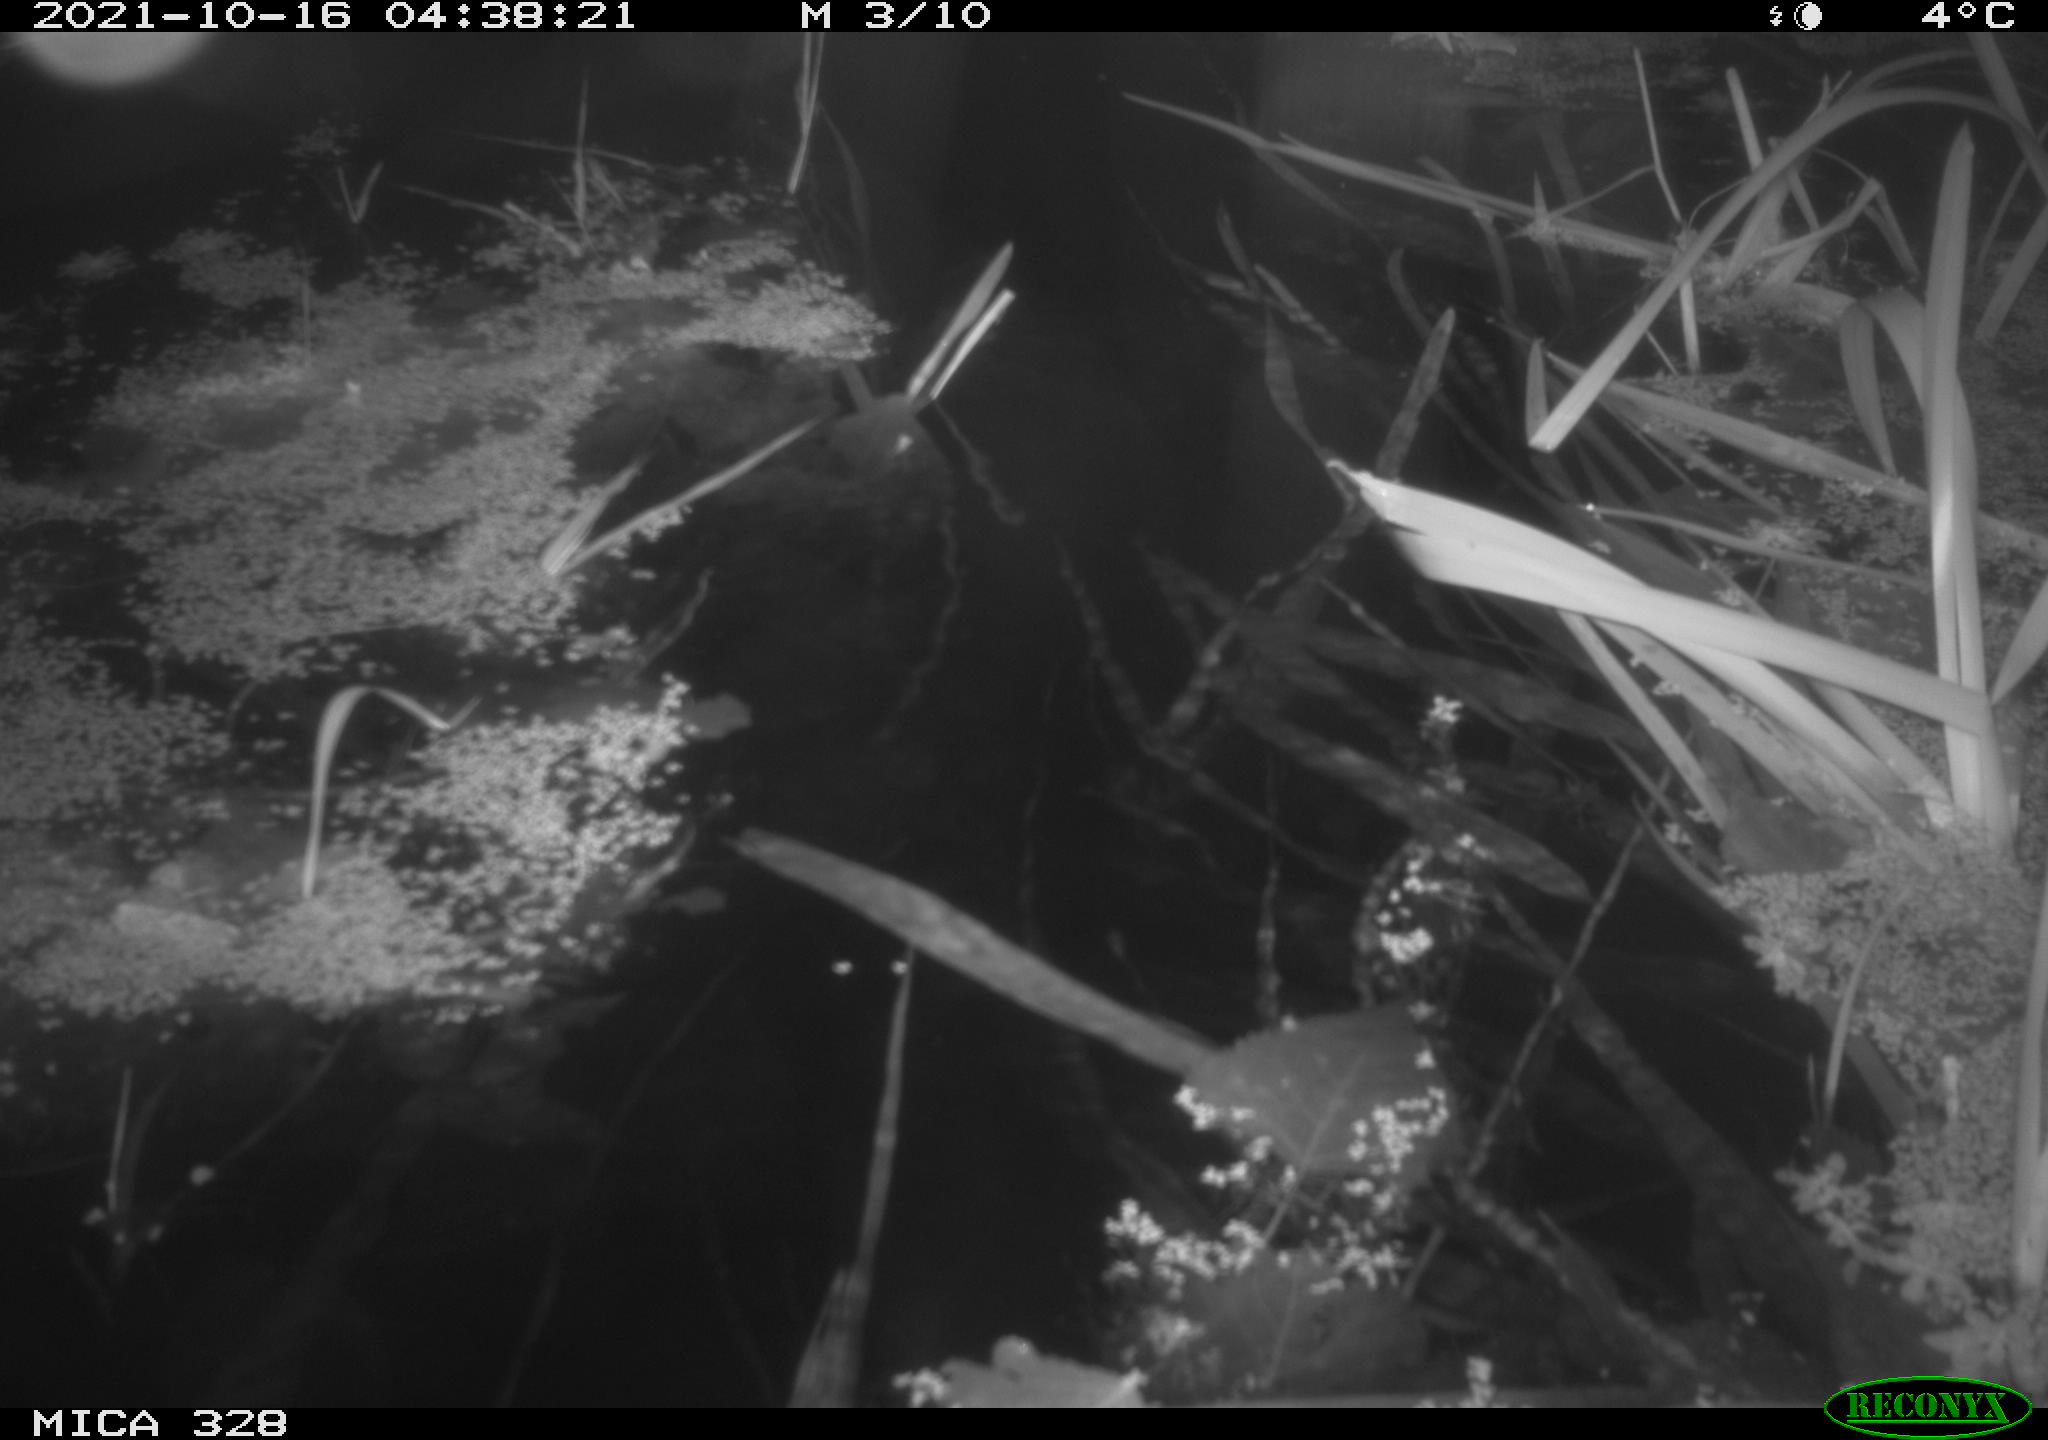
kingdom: Animalia
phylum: Chordata
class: Mammalia
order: Rodentia
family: Cricetidae
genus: Ondatra
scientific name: Ondatra zibethicus
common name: Muskrat
